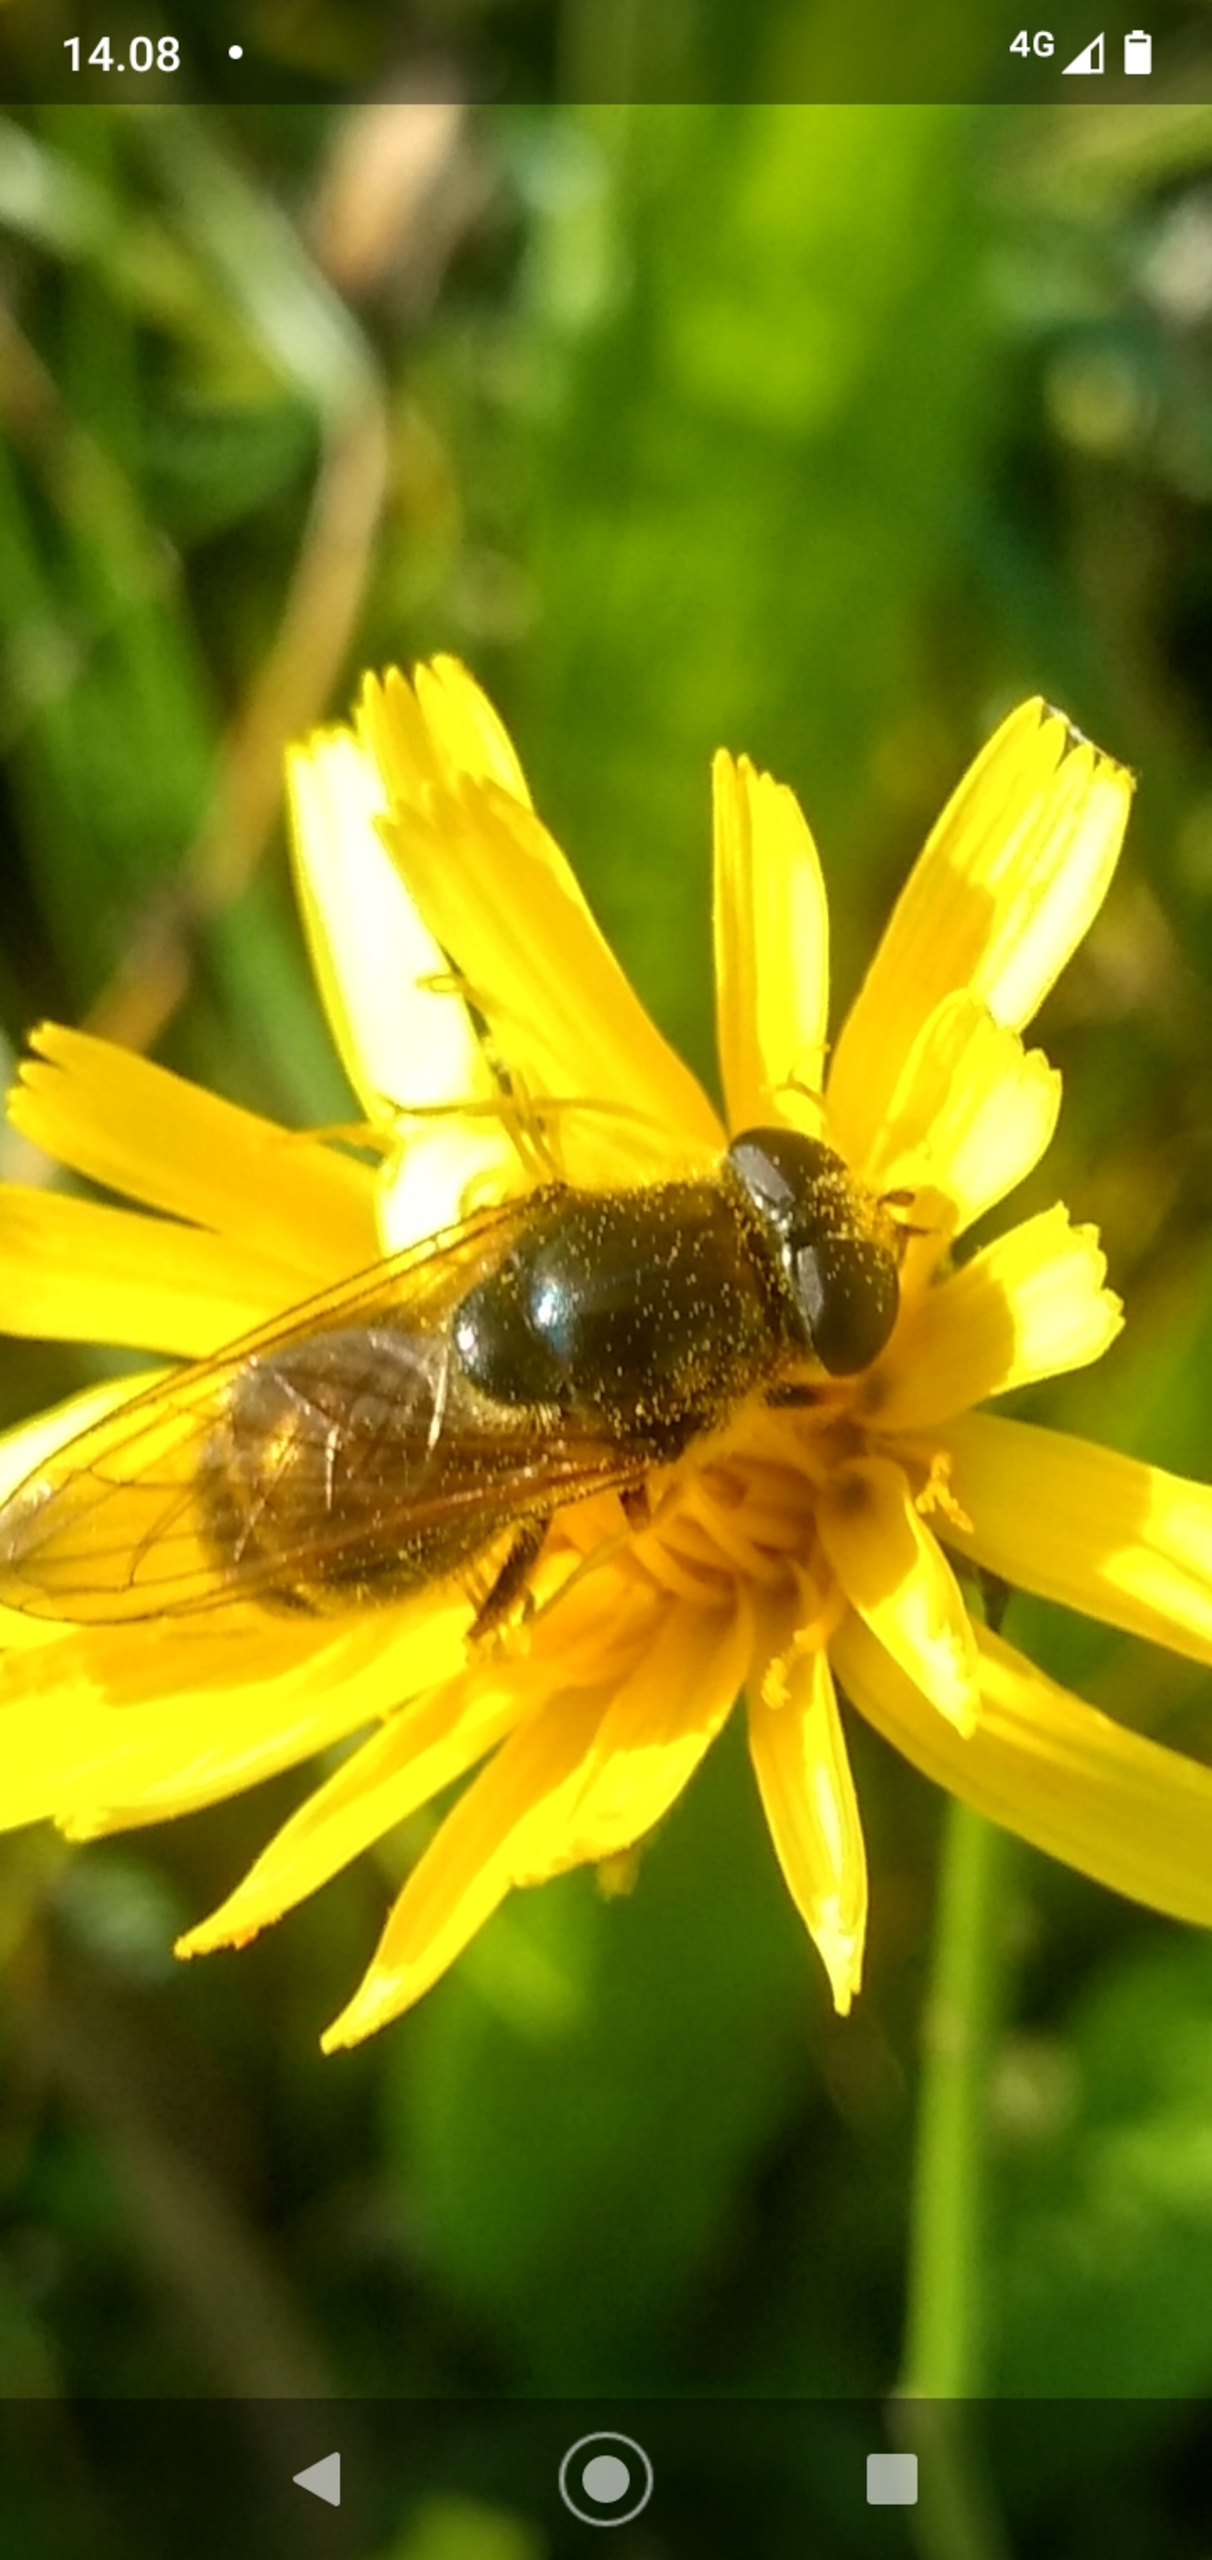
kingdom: Animalia
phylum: Arthropoda
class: Insecta
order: Diptera
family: Syrphidae
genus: Cheilosia
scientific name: Cheilosia himantopus
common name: Hestehov-urtesvirreflue
